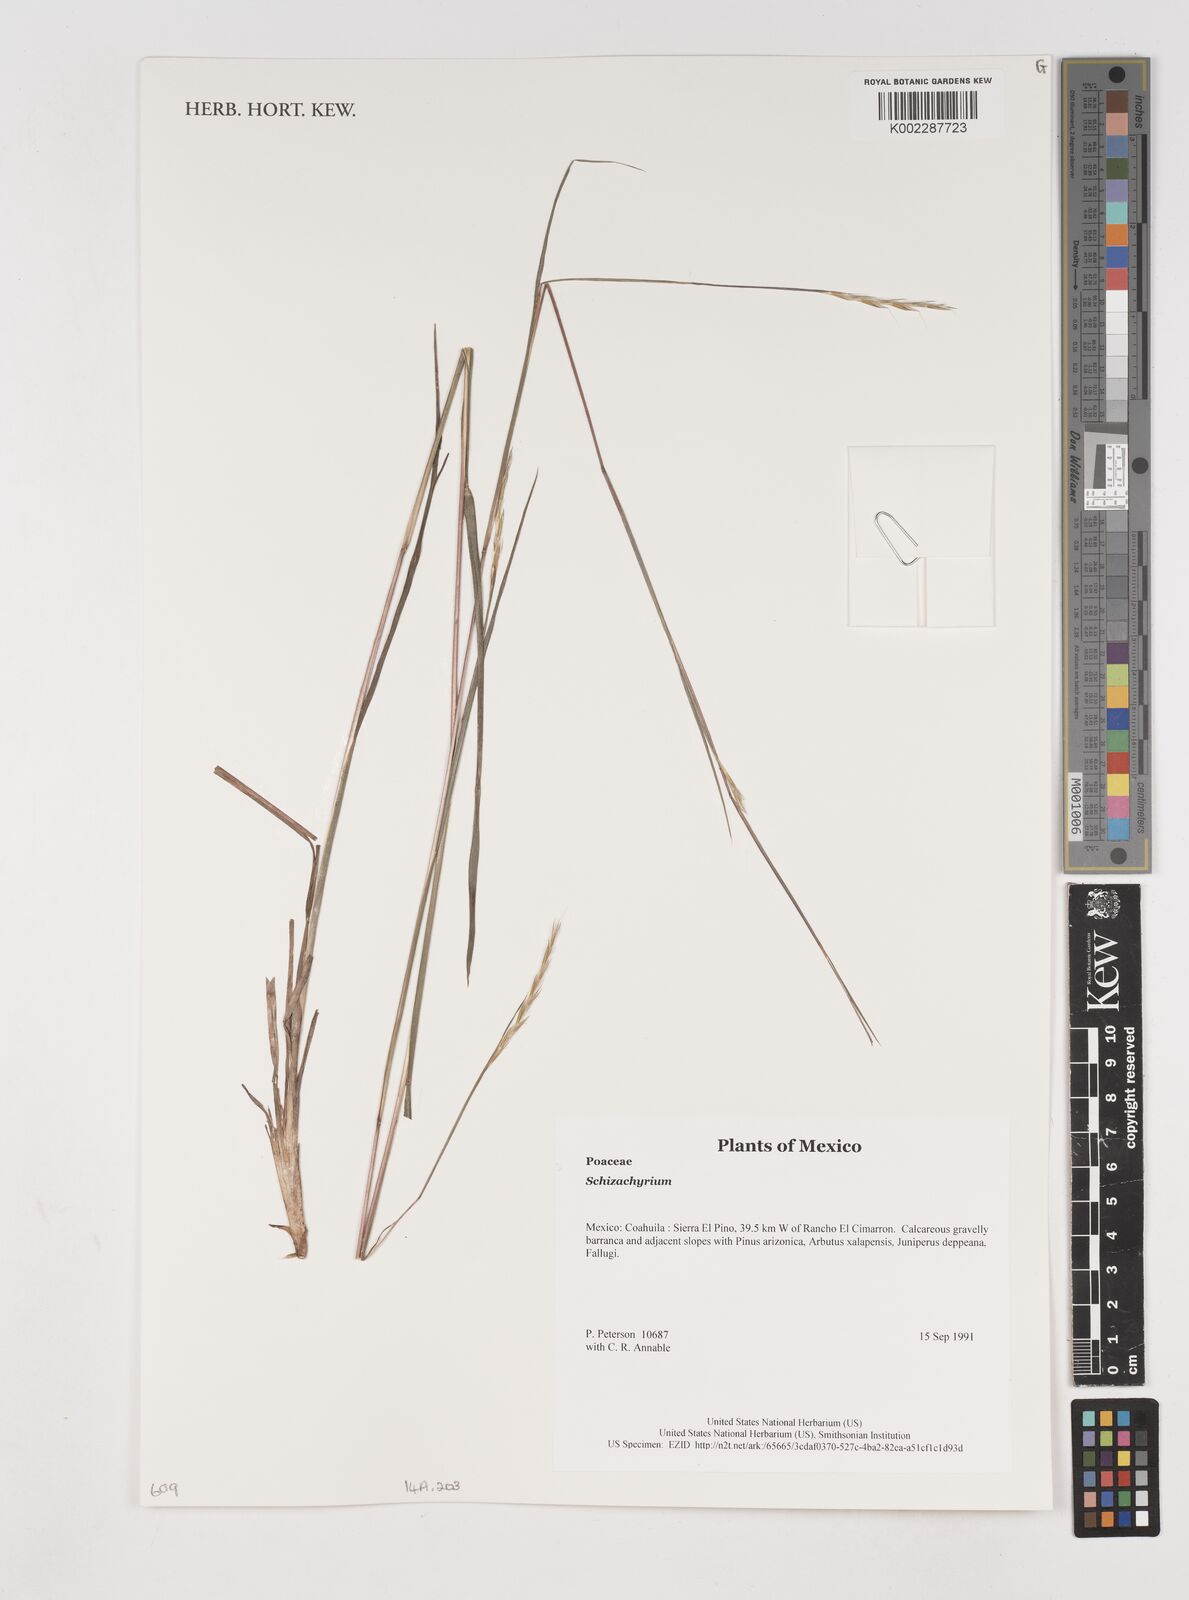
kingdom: Plantae
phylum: Tracheophyta
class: Liliopsida
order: Poales
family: Poaceae
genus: Schizachyrium
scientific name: Schizachyrium
